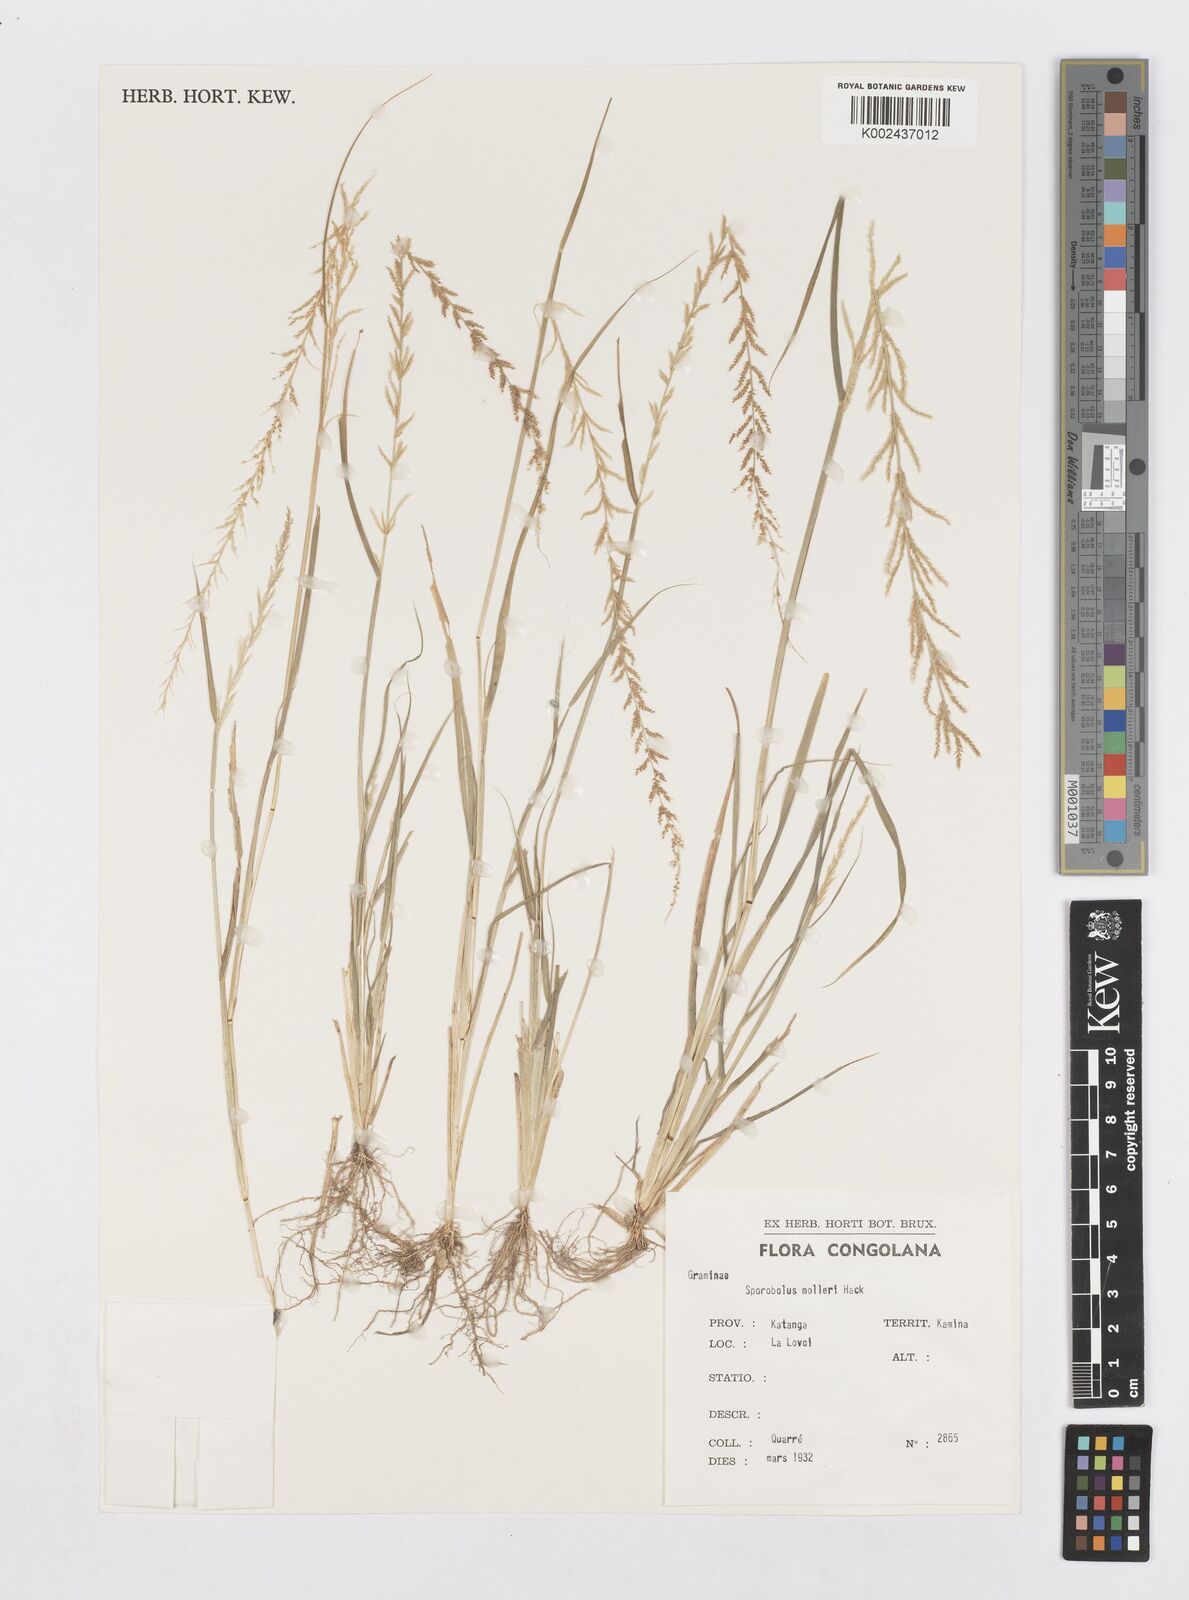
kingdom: Plantae
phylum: Tracheophyta
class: Liliopsida
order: Poales
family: Poaceae
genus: Sporobolus
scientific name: Sporobolus molleri
